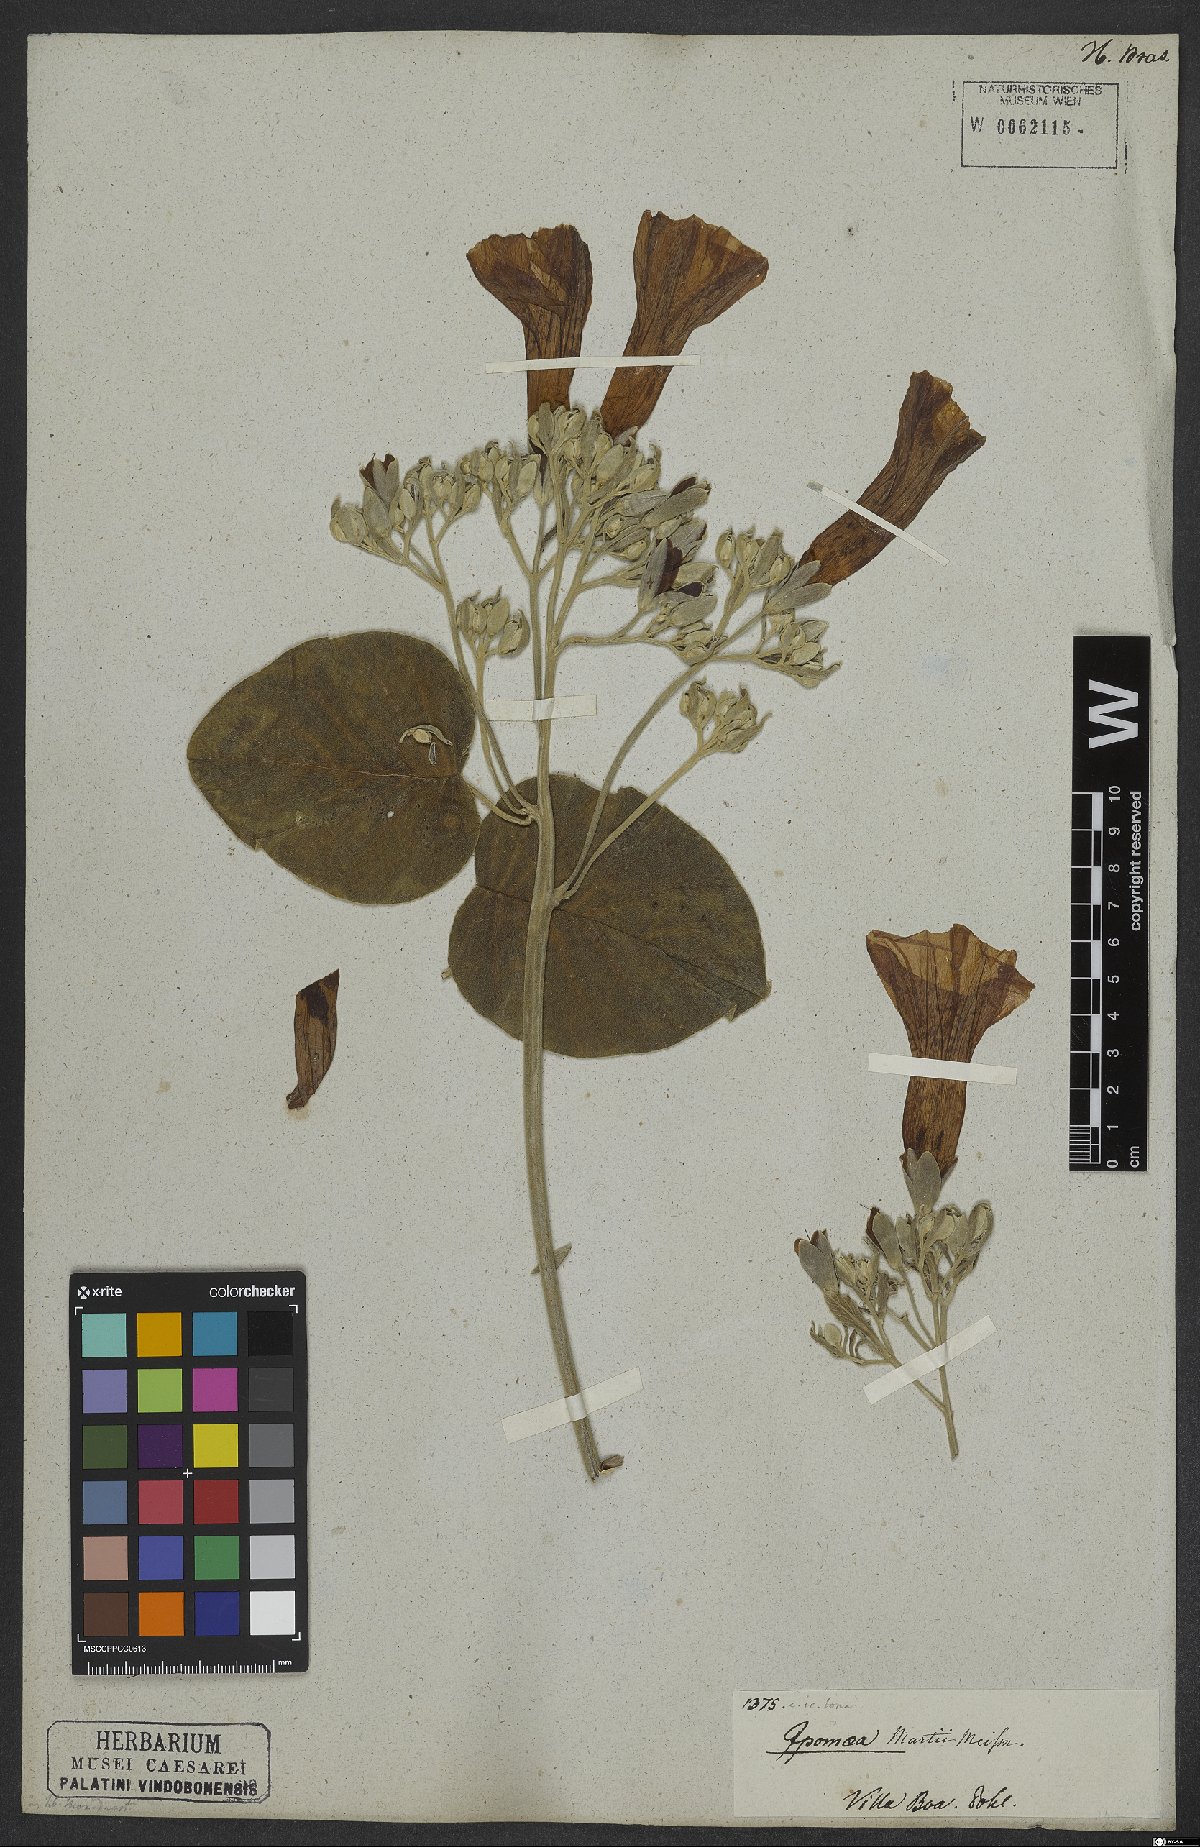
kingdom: Plantae
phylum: Tracheophyta
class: Magnoliopsida
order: Solanales
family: Convolvulaceae
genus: Ipomoea
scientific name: Ipomoea sericosepala
